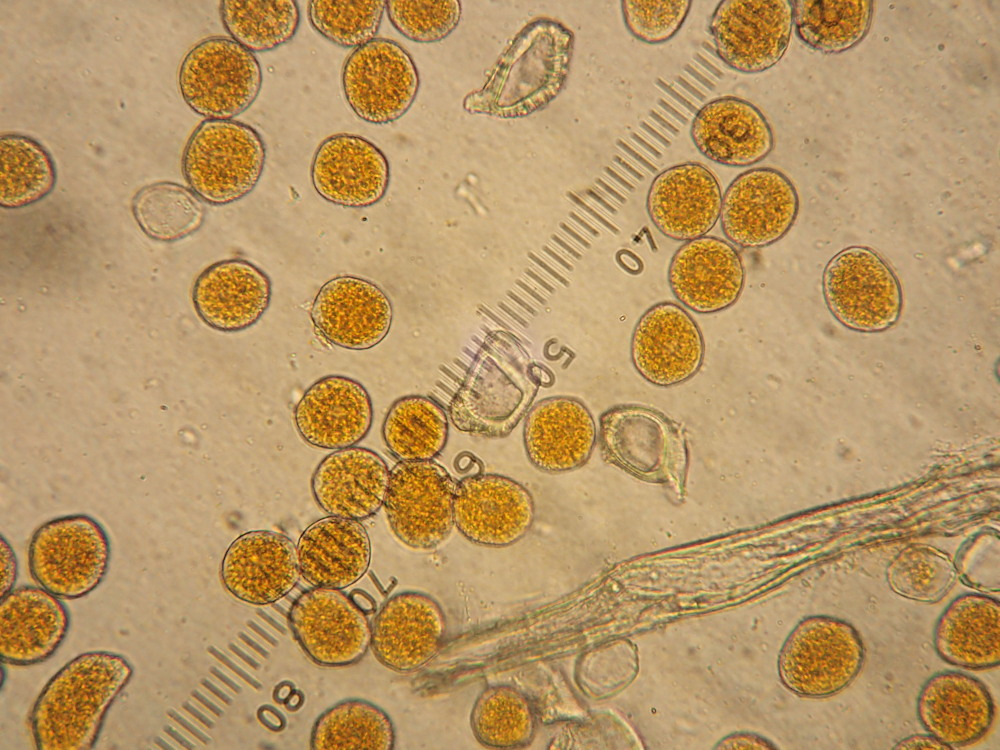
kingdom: Fungi
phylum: Basidiomycota
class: Pucciniomycetes
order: Pucciniales
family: Pucciniaceae
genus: Uromyces
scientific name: Uromyces dactylidis
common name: ranunkel-encellerust
